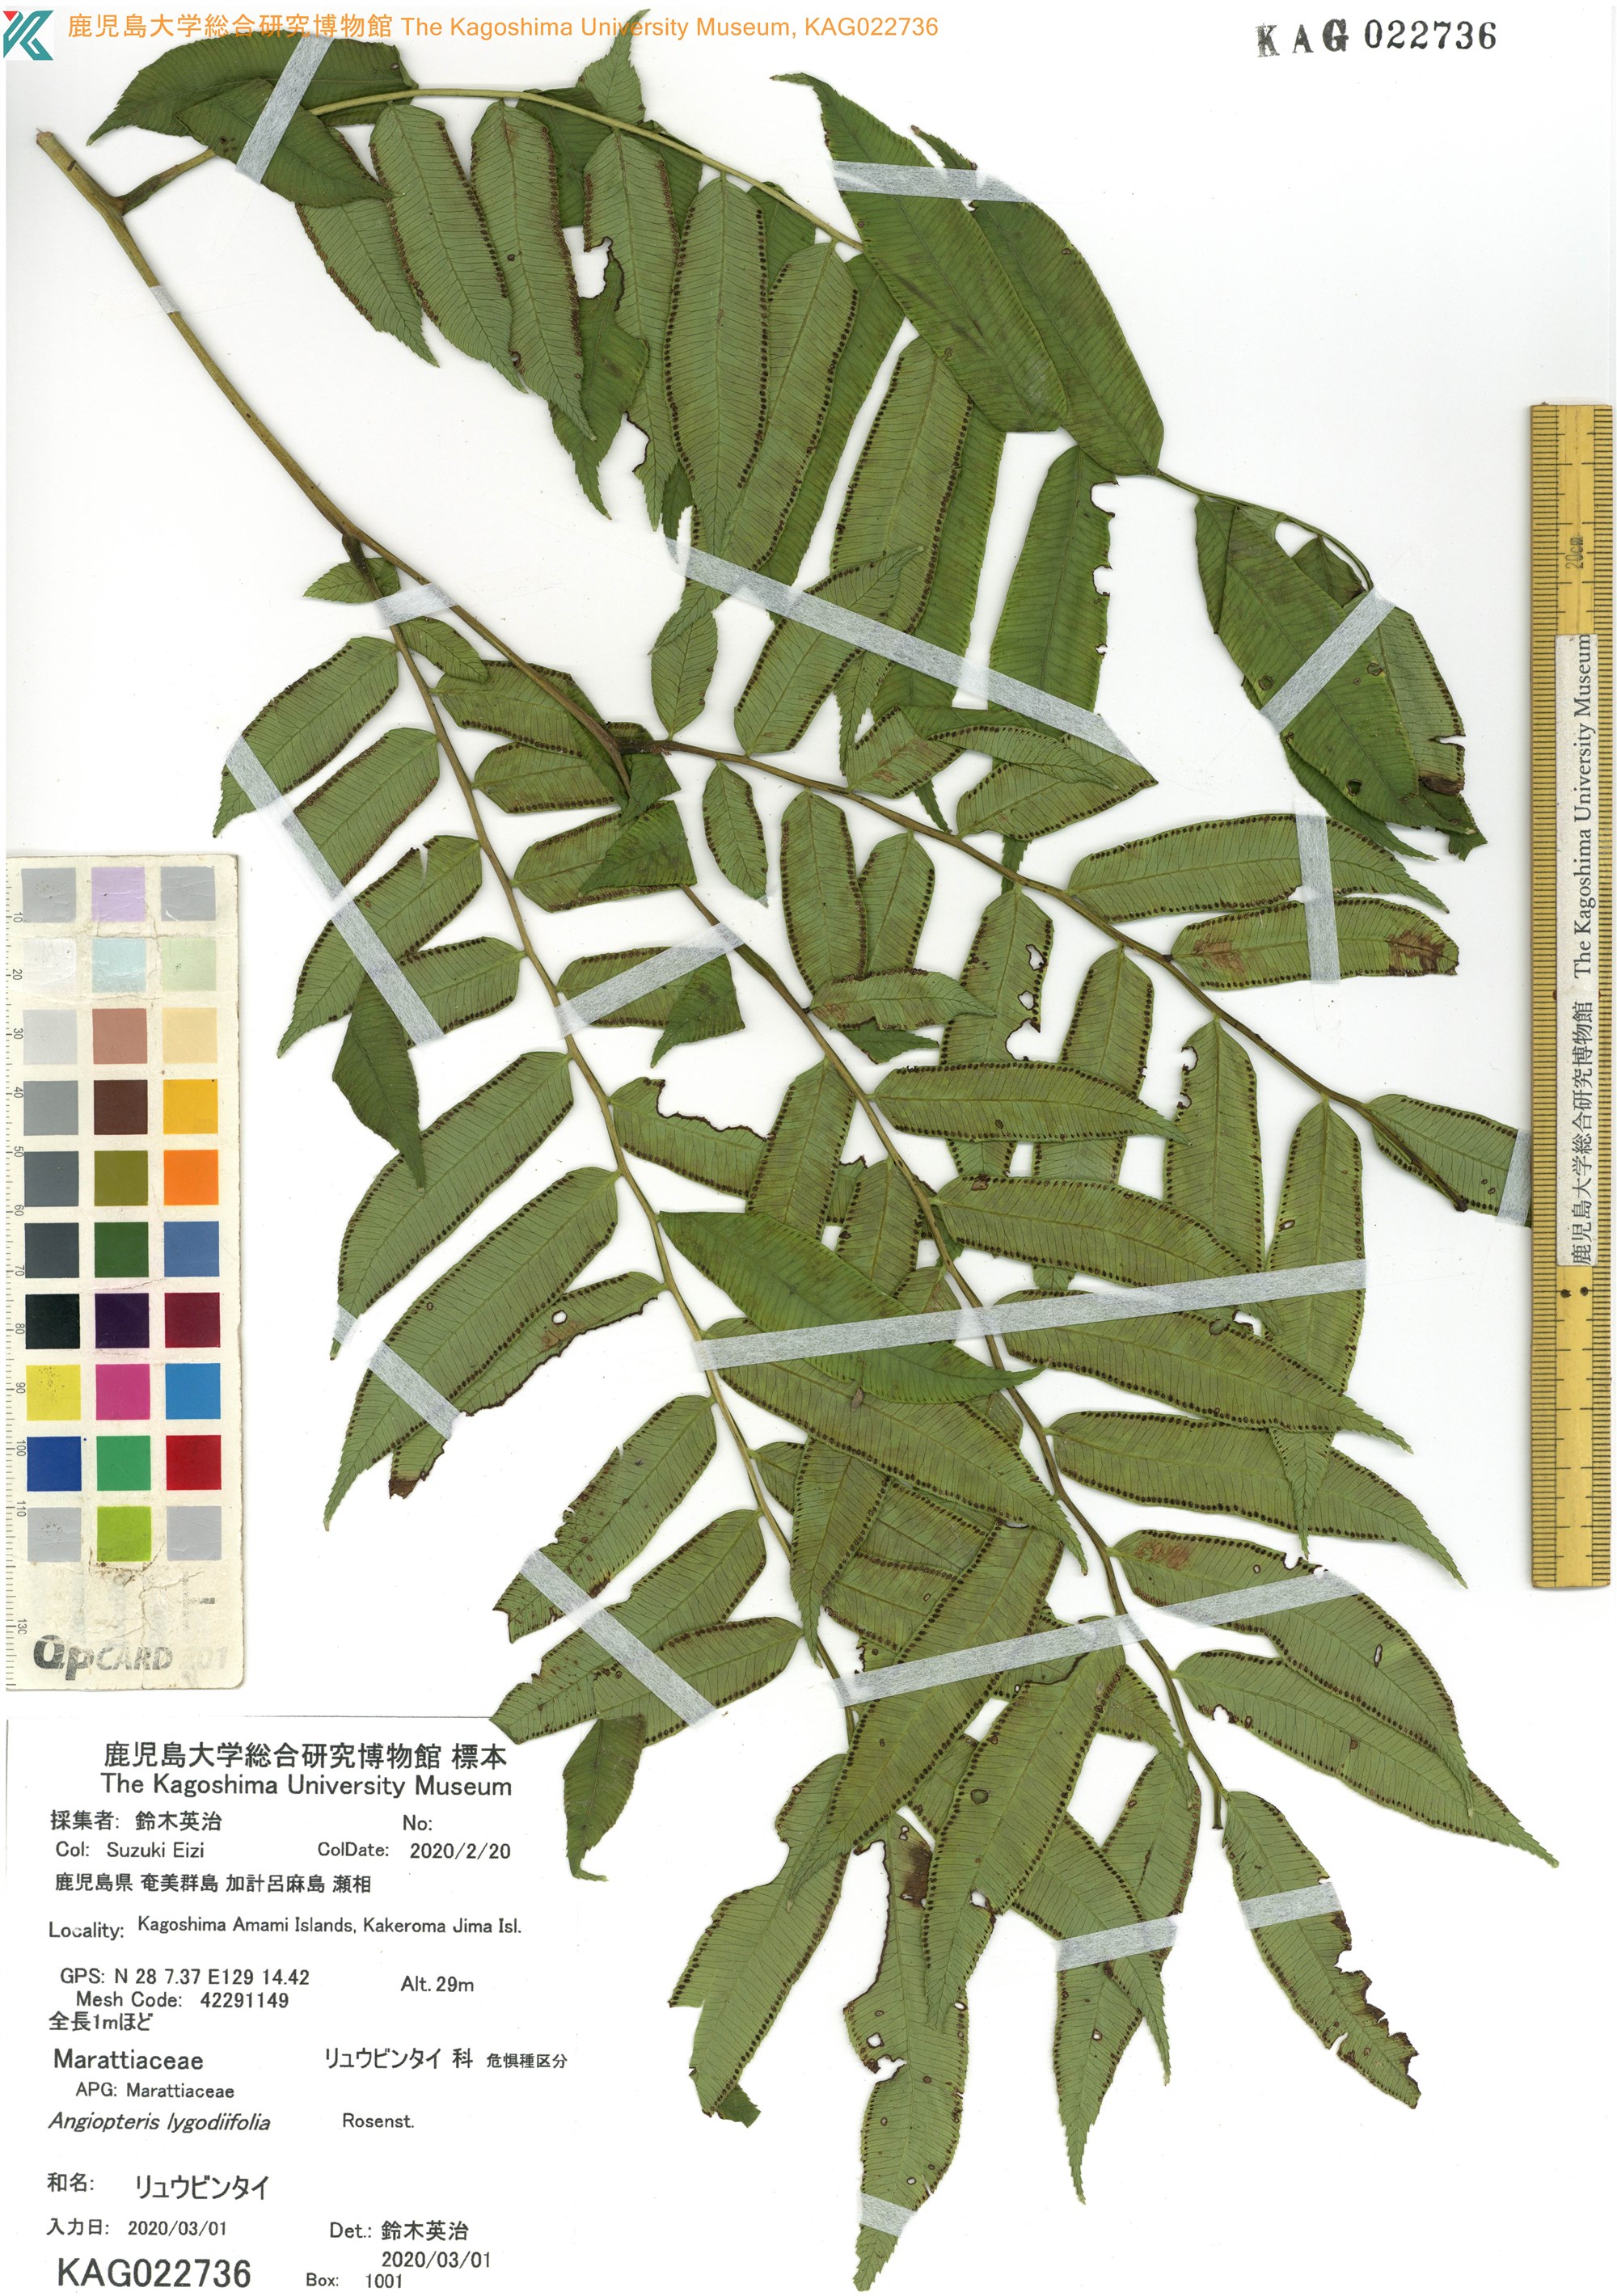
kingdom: Plantae
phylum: Tracheophyta
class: Polypodiopsida
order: Marattiales
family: Marattiaceae
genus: Angiopteris
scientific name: Angiopteris lygodiifolia
